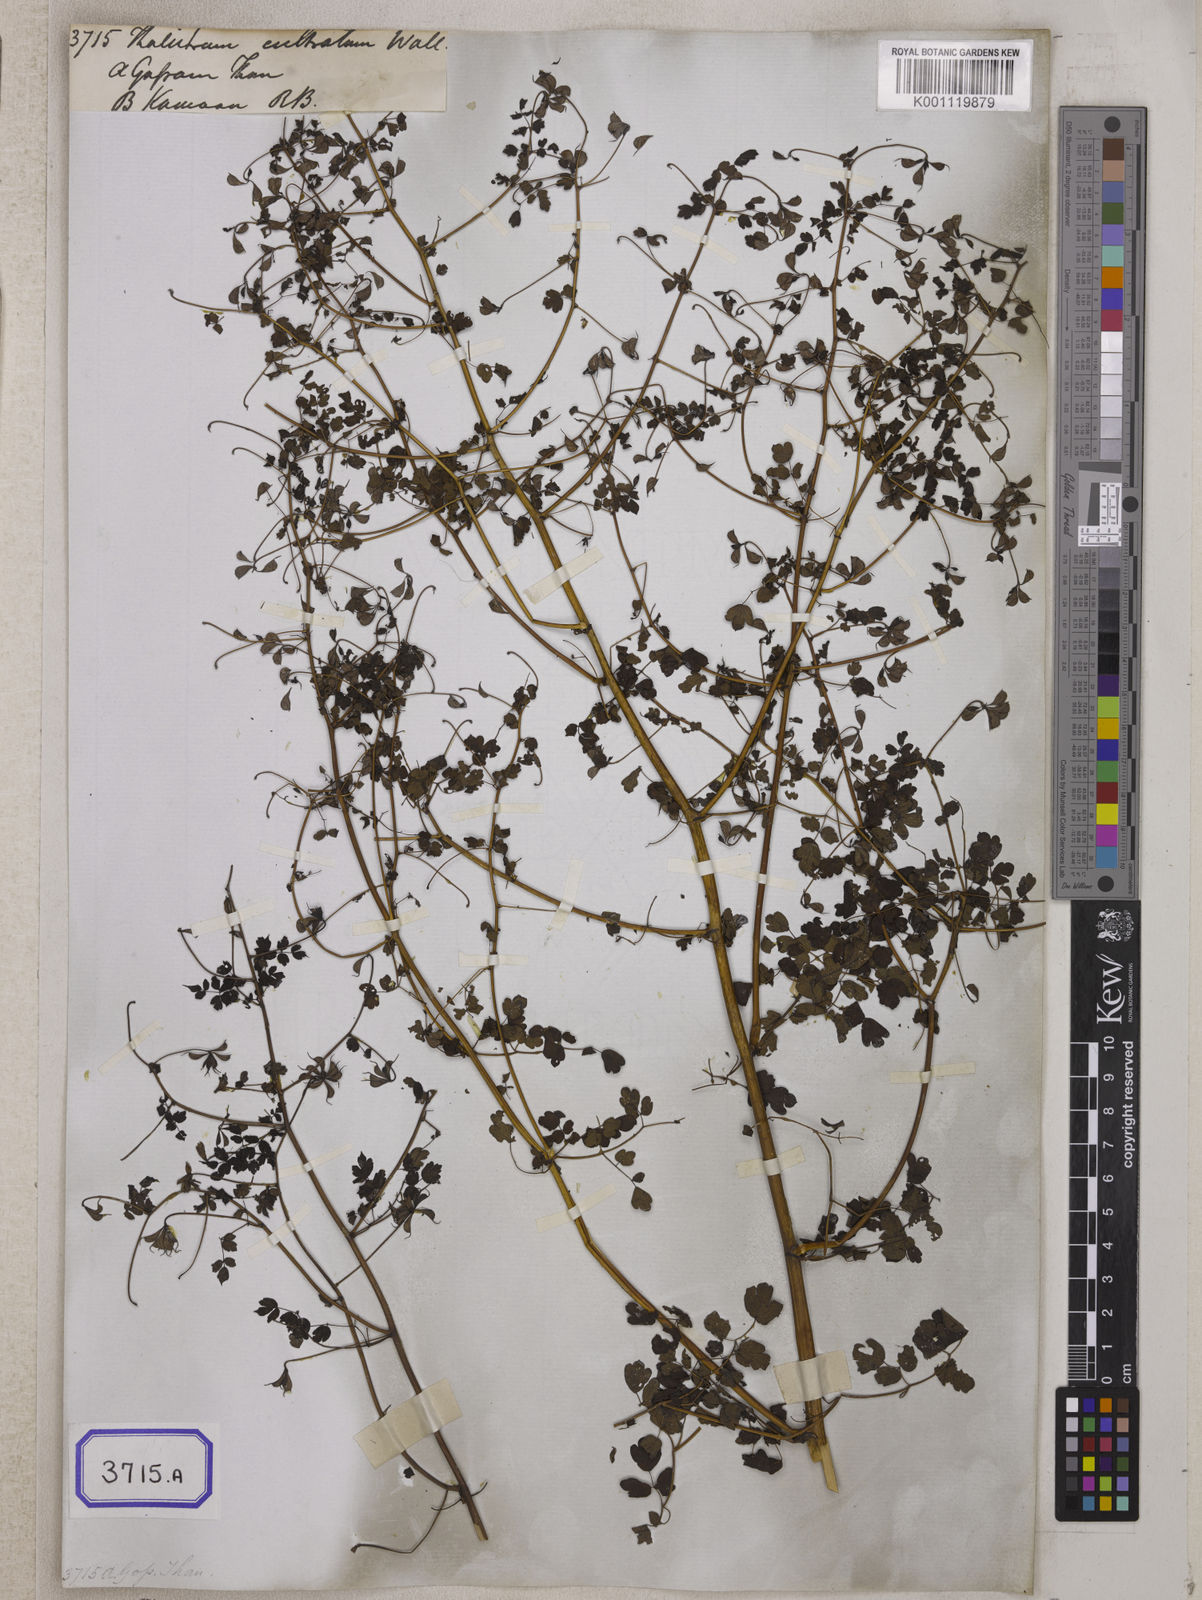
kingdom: Plantae
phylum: Tracheophyta
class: Magnoliopsida
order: Ranunculales
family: Ranunculaceae
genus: Thalictrum
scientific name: Thalictrum cultratum
